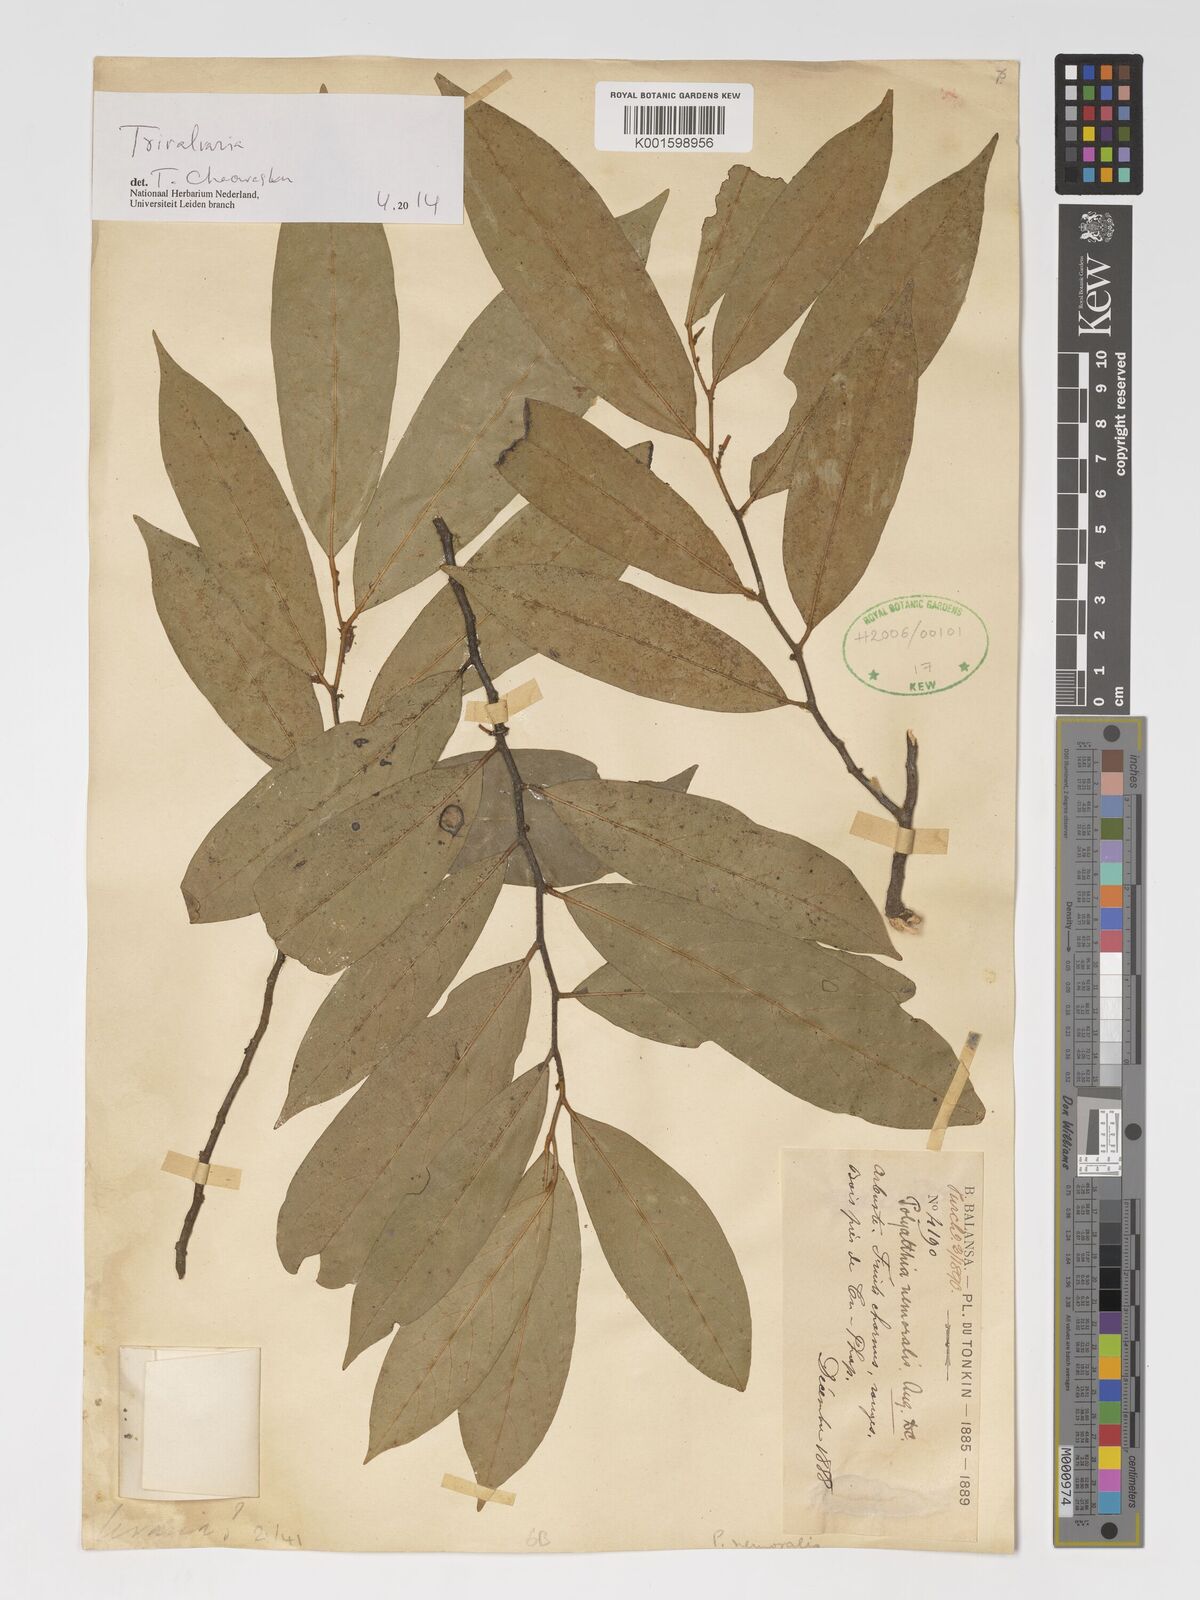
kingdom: Plantae
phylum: Tracheophyta
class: Magnoliopsida
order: Magnoliales
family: Annonaceae
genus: Trivalvaria
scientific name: Trivalvaria
